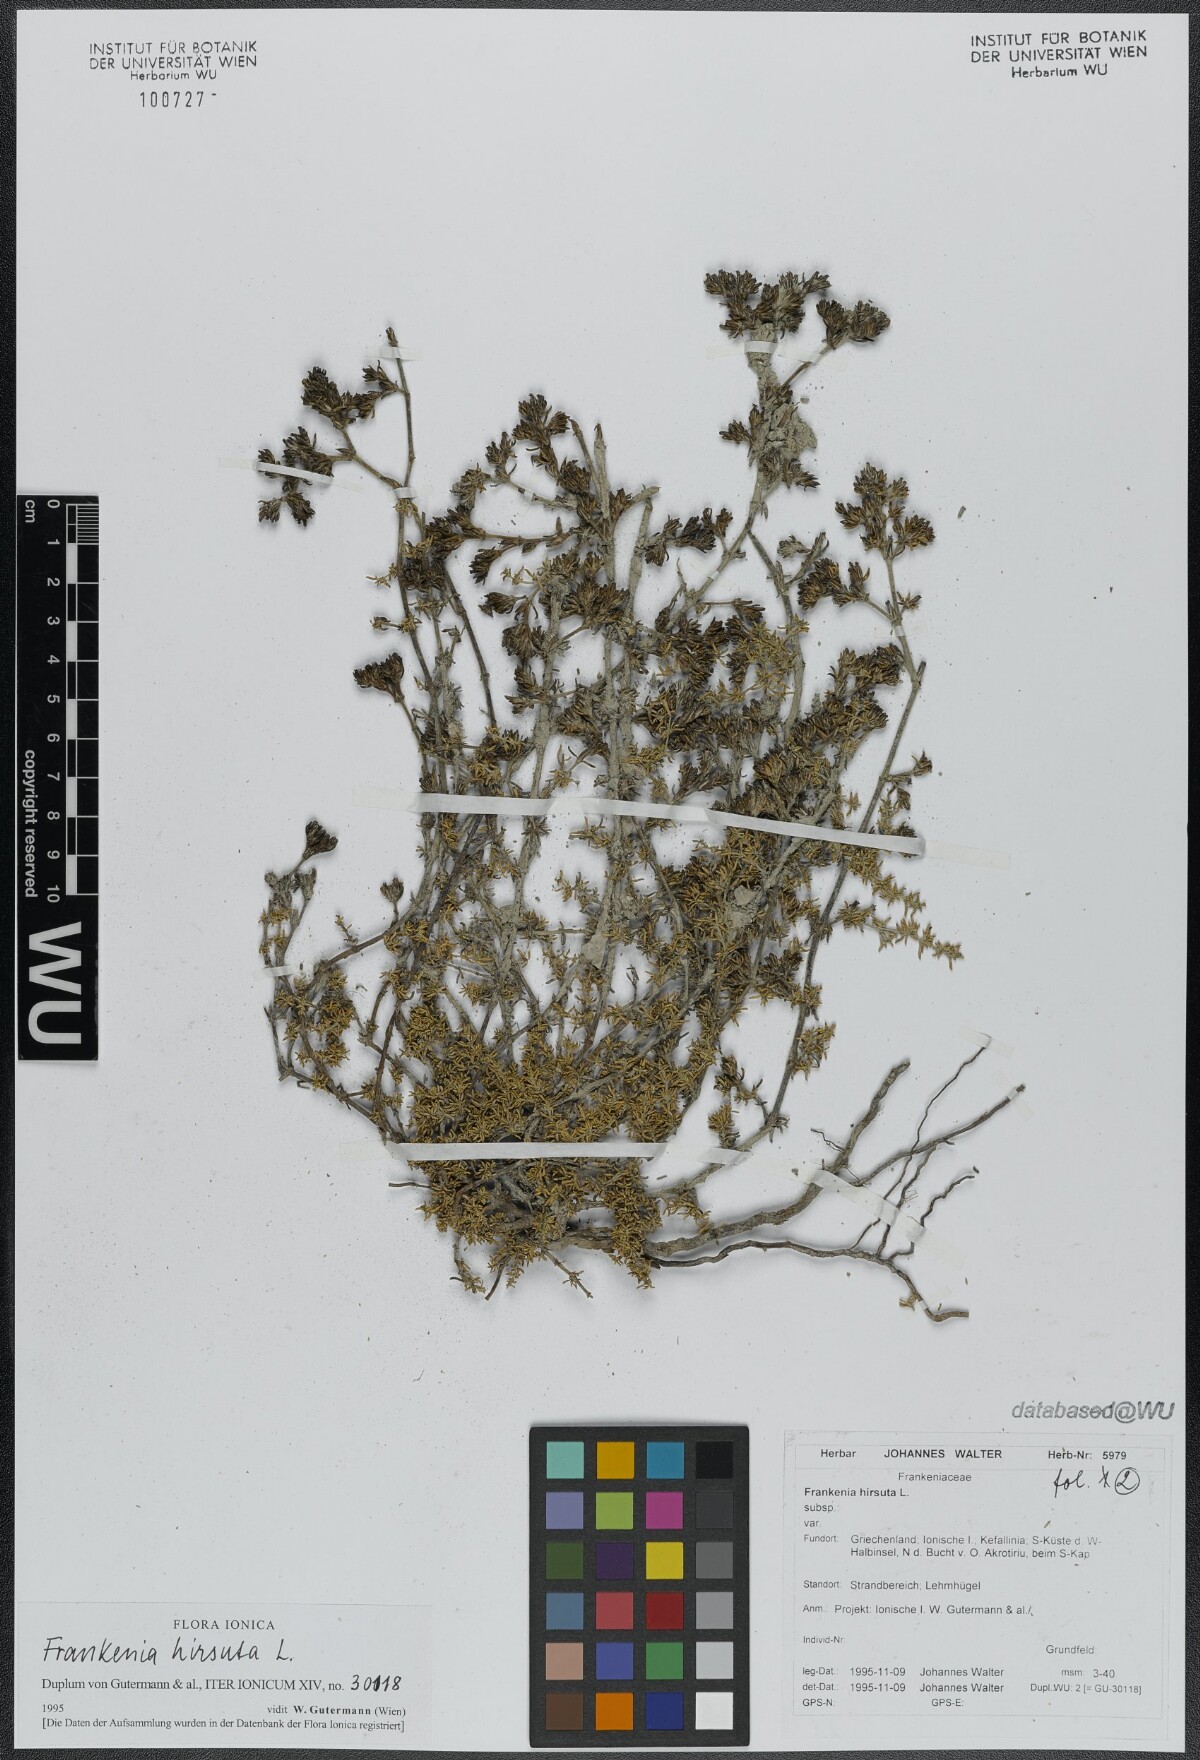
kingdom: Plantae
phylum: Tracheophyta
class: Magnoliopsida
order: Caryophyllales
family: Frankeniaceae
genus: Frankenia
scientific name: Frankenia hirsuta
